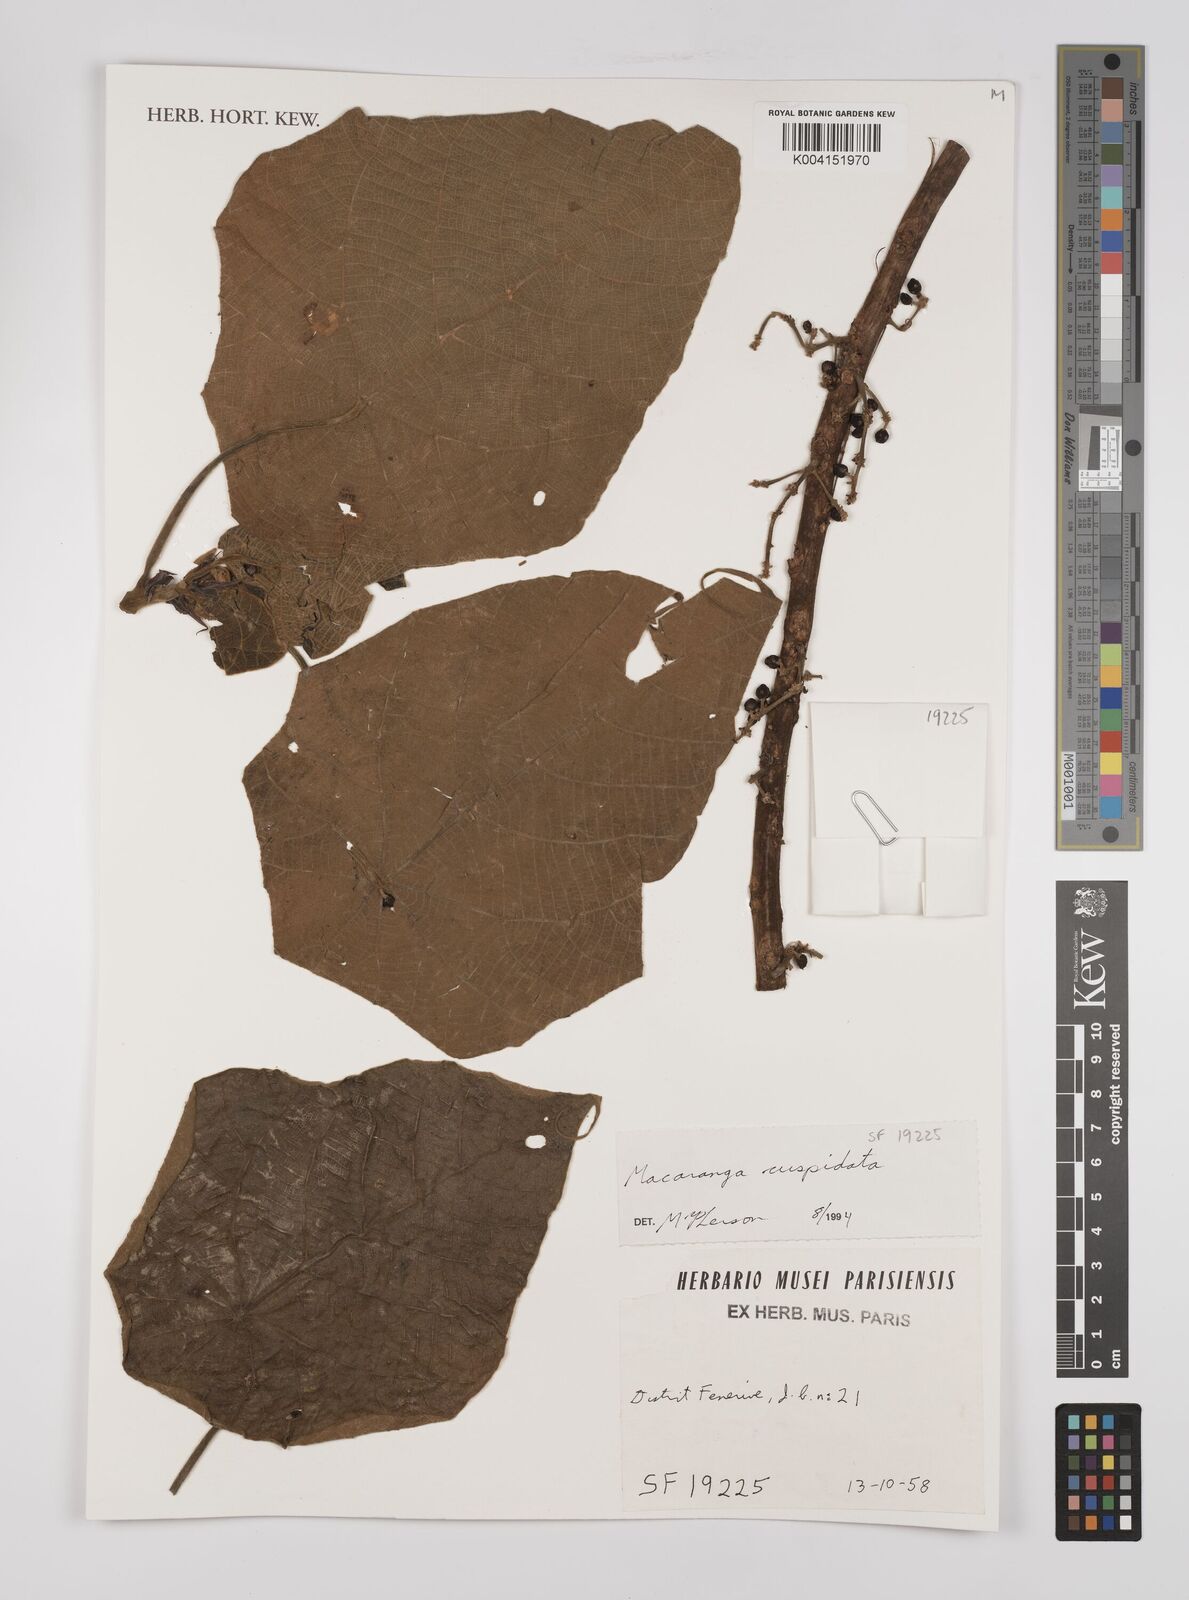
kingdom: Plantae
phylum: Tracheophyta
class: Magnoliopsida
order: Malpighiales
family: Euphorbiaceae
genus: Macaranga
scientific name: Macaranga cuspidata
